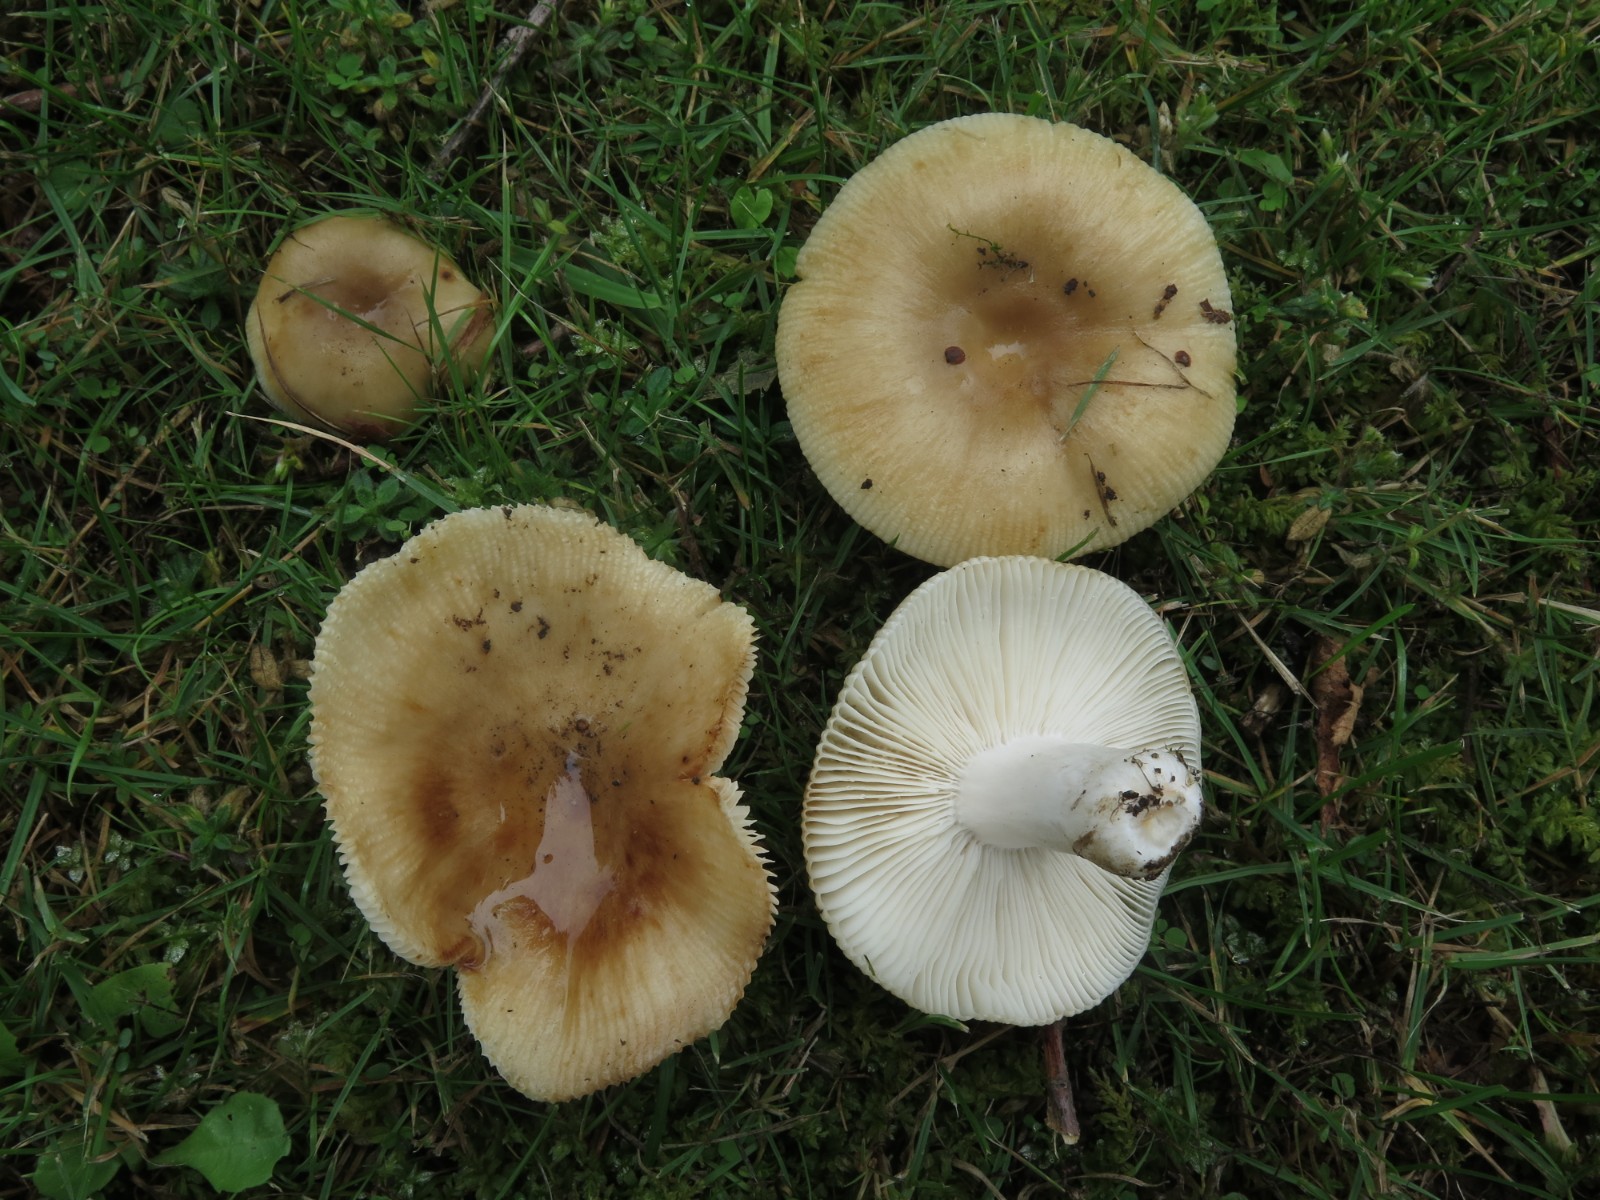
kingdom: Fungi
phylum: Basidiomycota
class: Agaricomycetes
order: Russulales
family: Russulaceae
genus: Russula
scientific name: Russula grata
